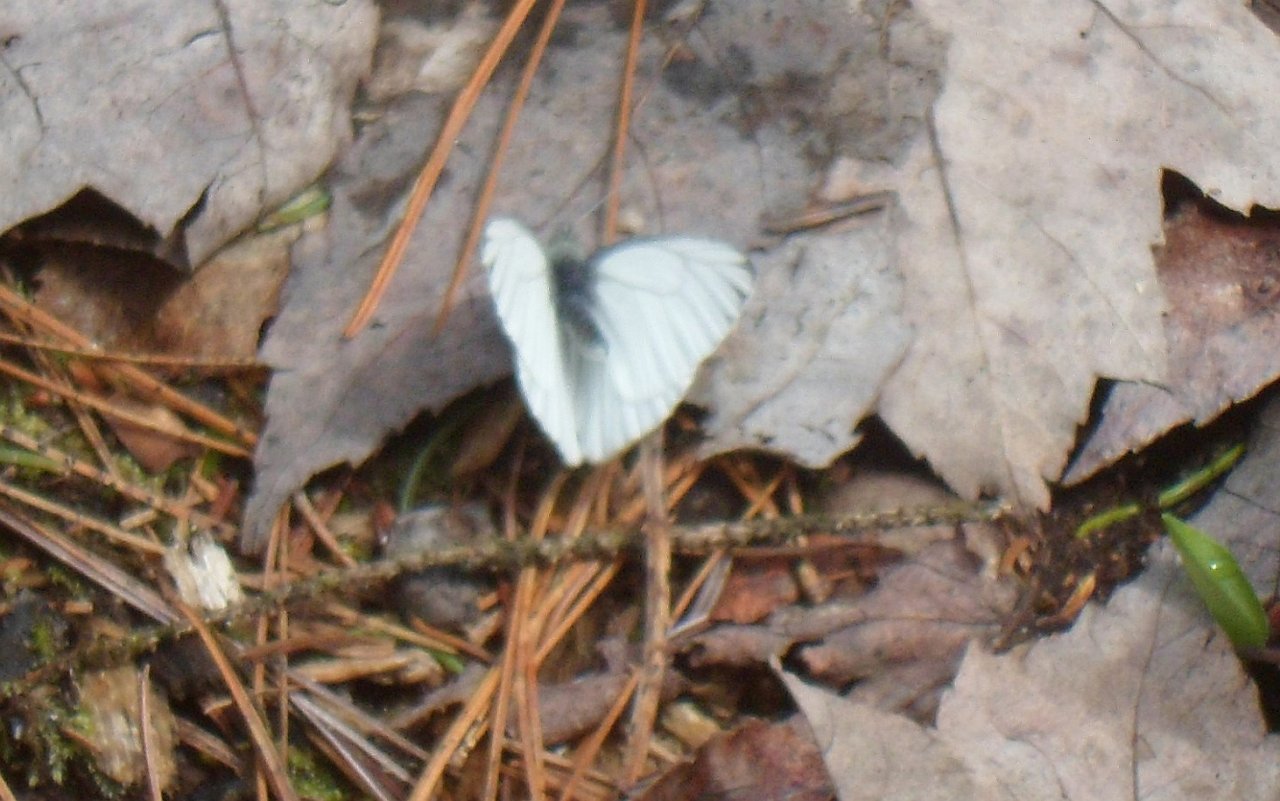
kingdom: Animalia
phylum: Arthropoda
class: Insecta
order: Lepidoptera
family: Pieridae
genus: Pieris
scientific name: Pieris oleracea
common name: Mustard White
